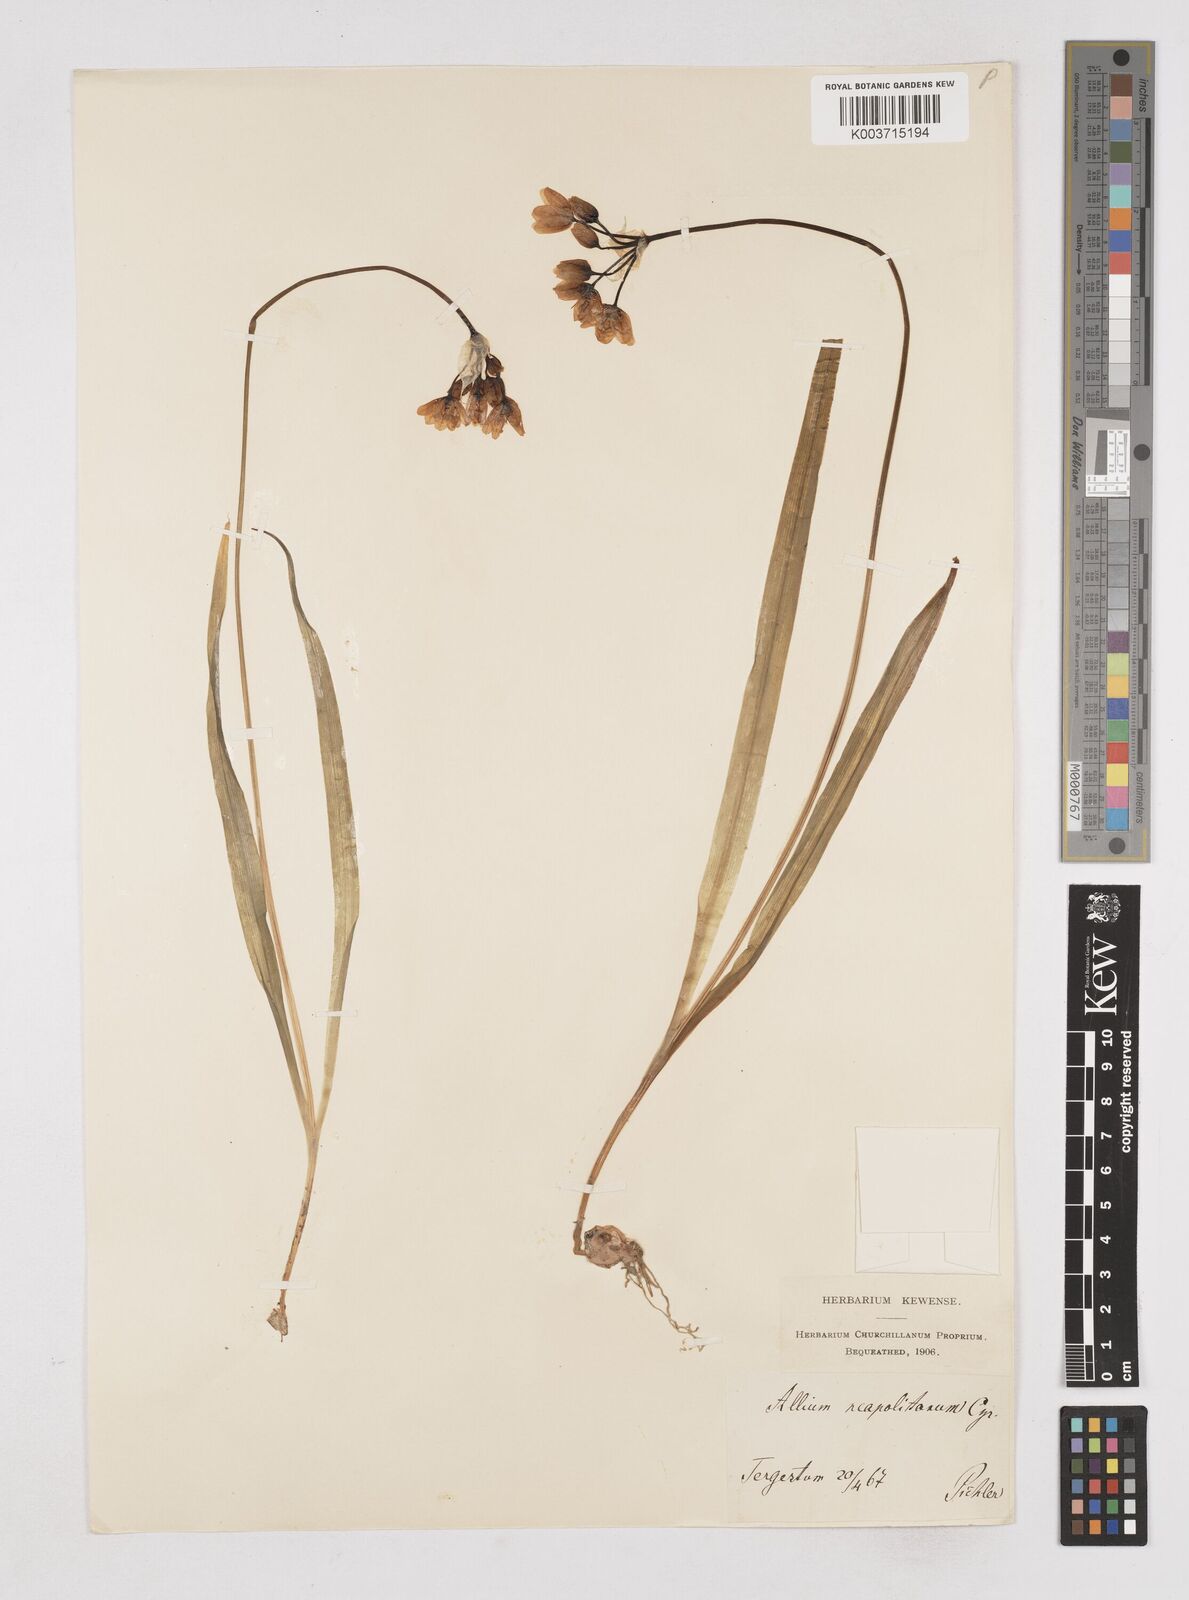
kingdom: Plantae
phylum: Tracheophyta
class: Liliopsida
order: Asparagales
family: Amaryllidaceae
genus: Allium
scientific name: Allium neapolitanum
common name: Neapolitan garlic
